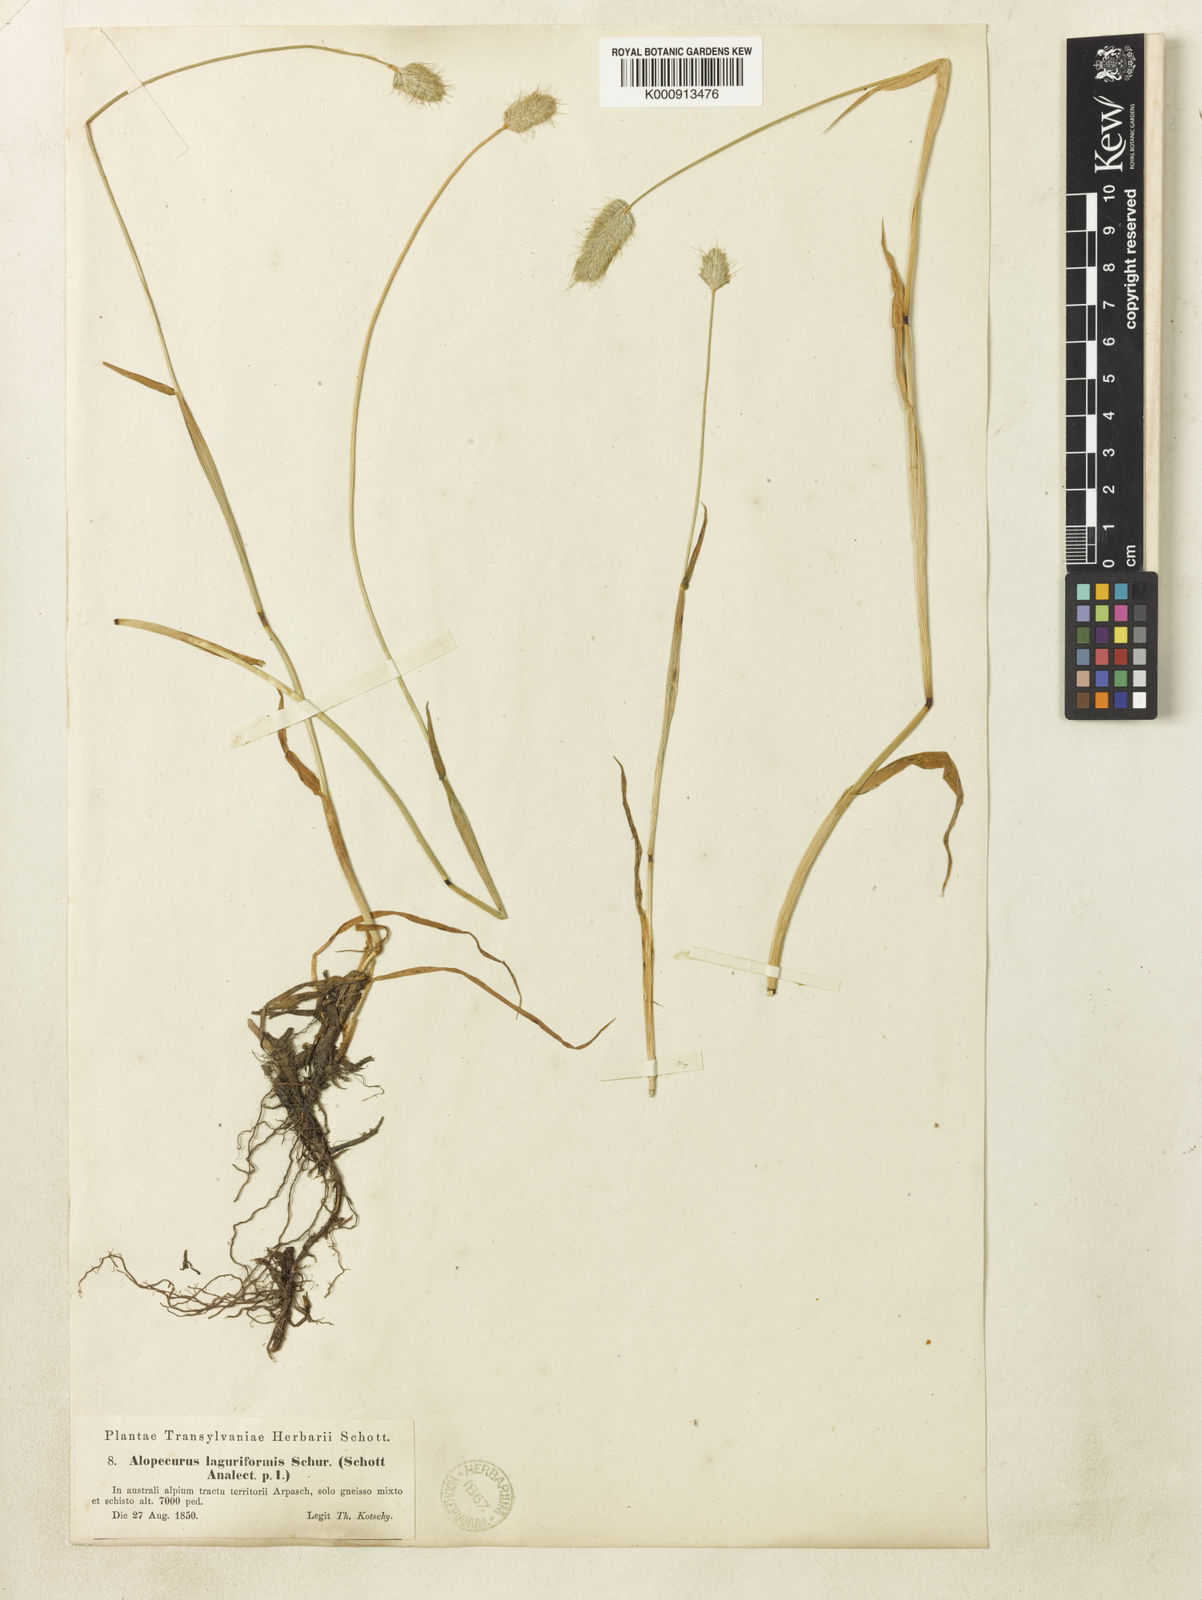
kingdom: Plantae
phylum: Tracheophyta
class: Liliopsida
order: Poales
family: Poaceae
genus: Alopecurus
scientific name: Alopecurus pratensis
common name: Meadow foxtail
